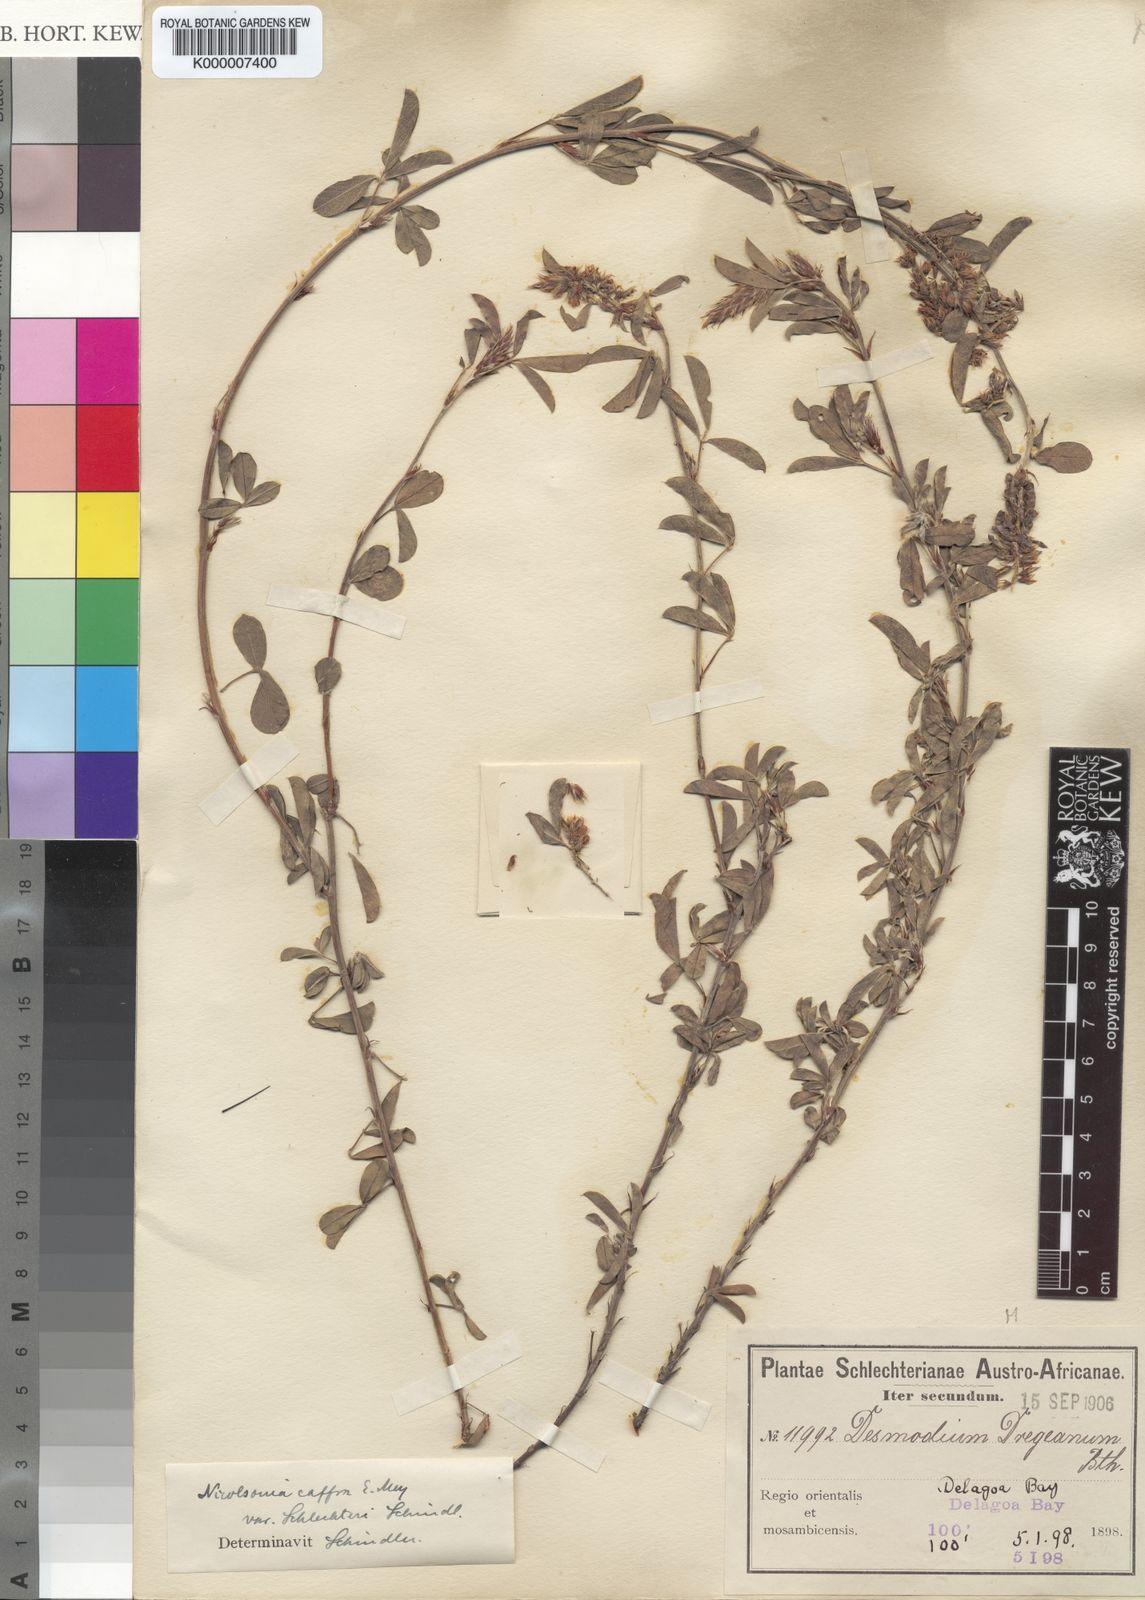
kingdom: Plantae
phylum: Tracheophyta
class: Magnoliopsida
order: Fabales
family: Fabaceae
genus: Grona
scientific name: Grona caffra
